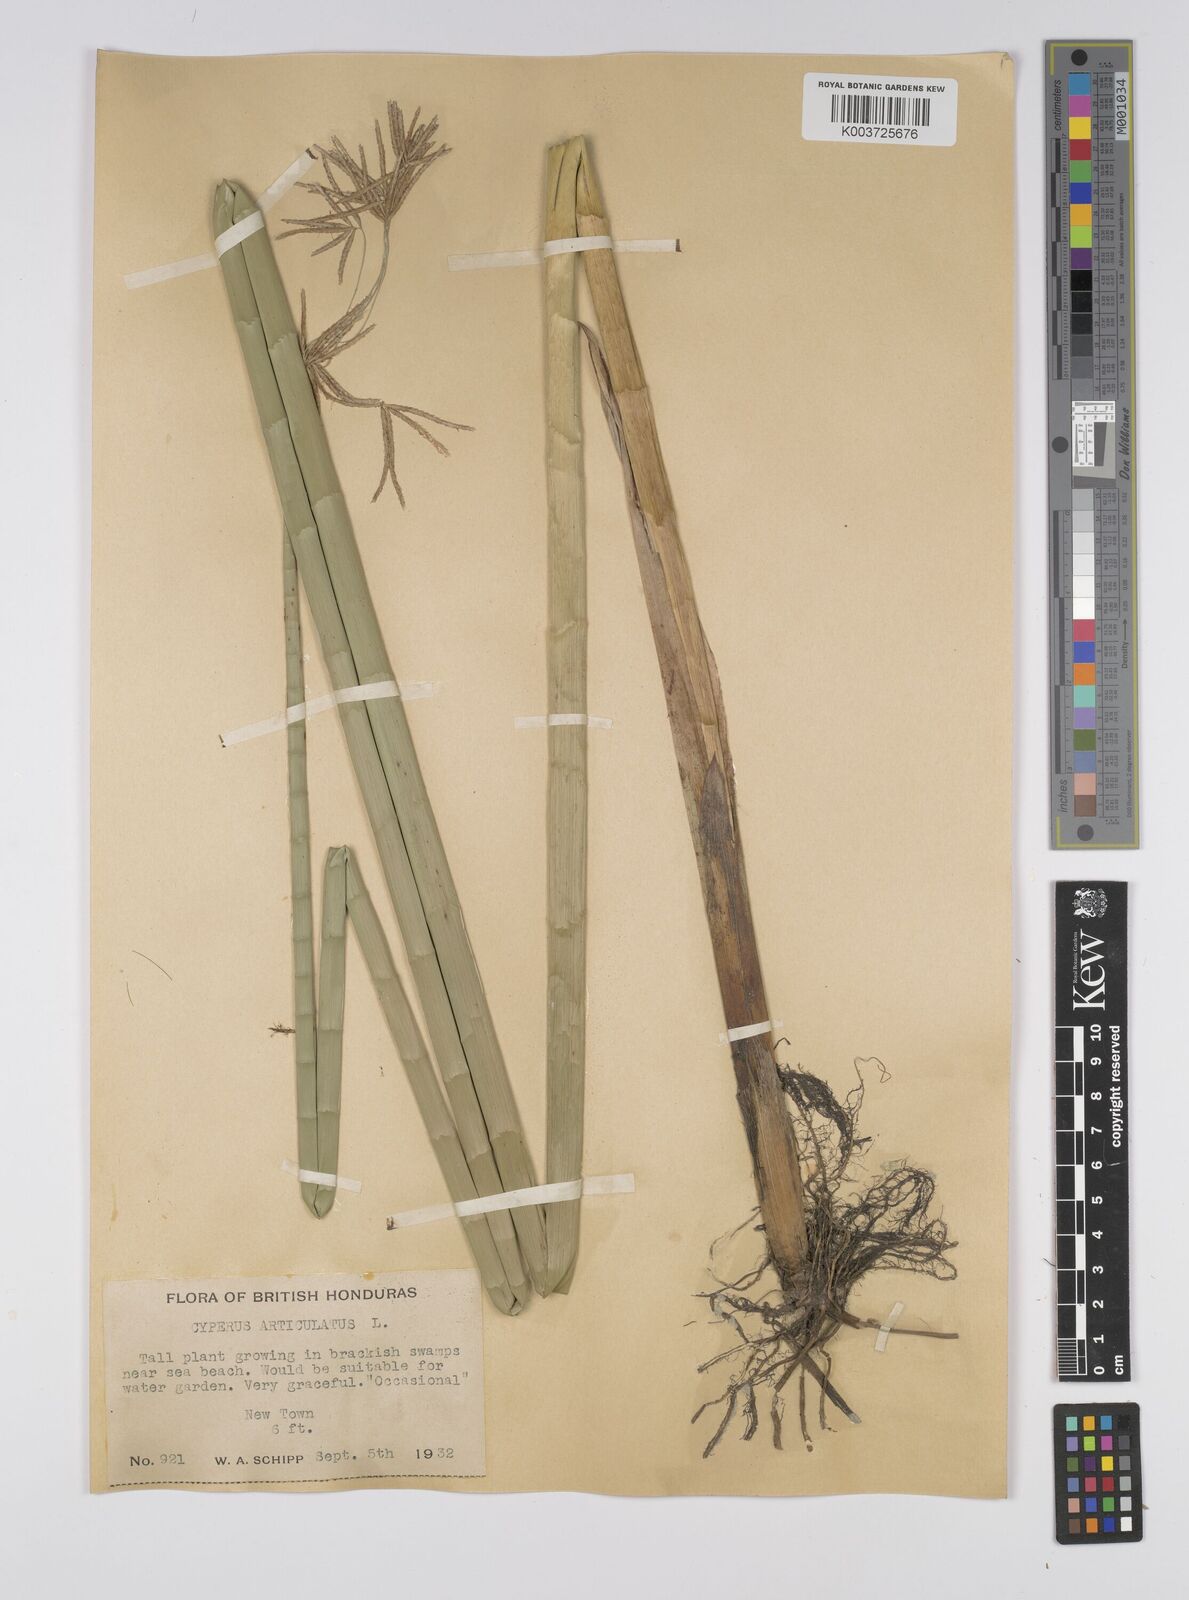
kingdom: Plantae
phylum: Tracheophyta
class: Liliopsida
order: Poales
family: Cyperaceae
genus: Cyperus
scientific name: Cyperus articulatus
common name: Jointed flatsedge
